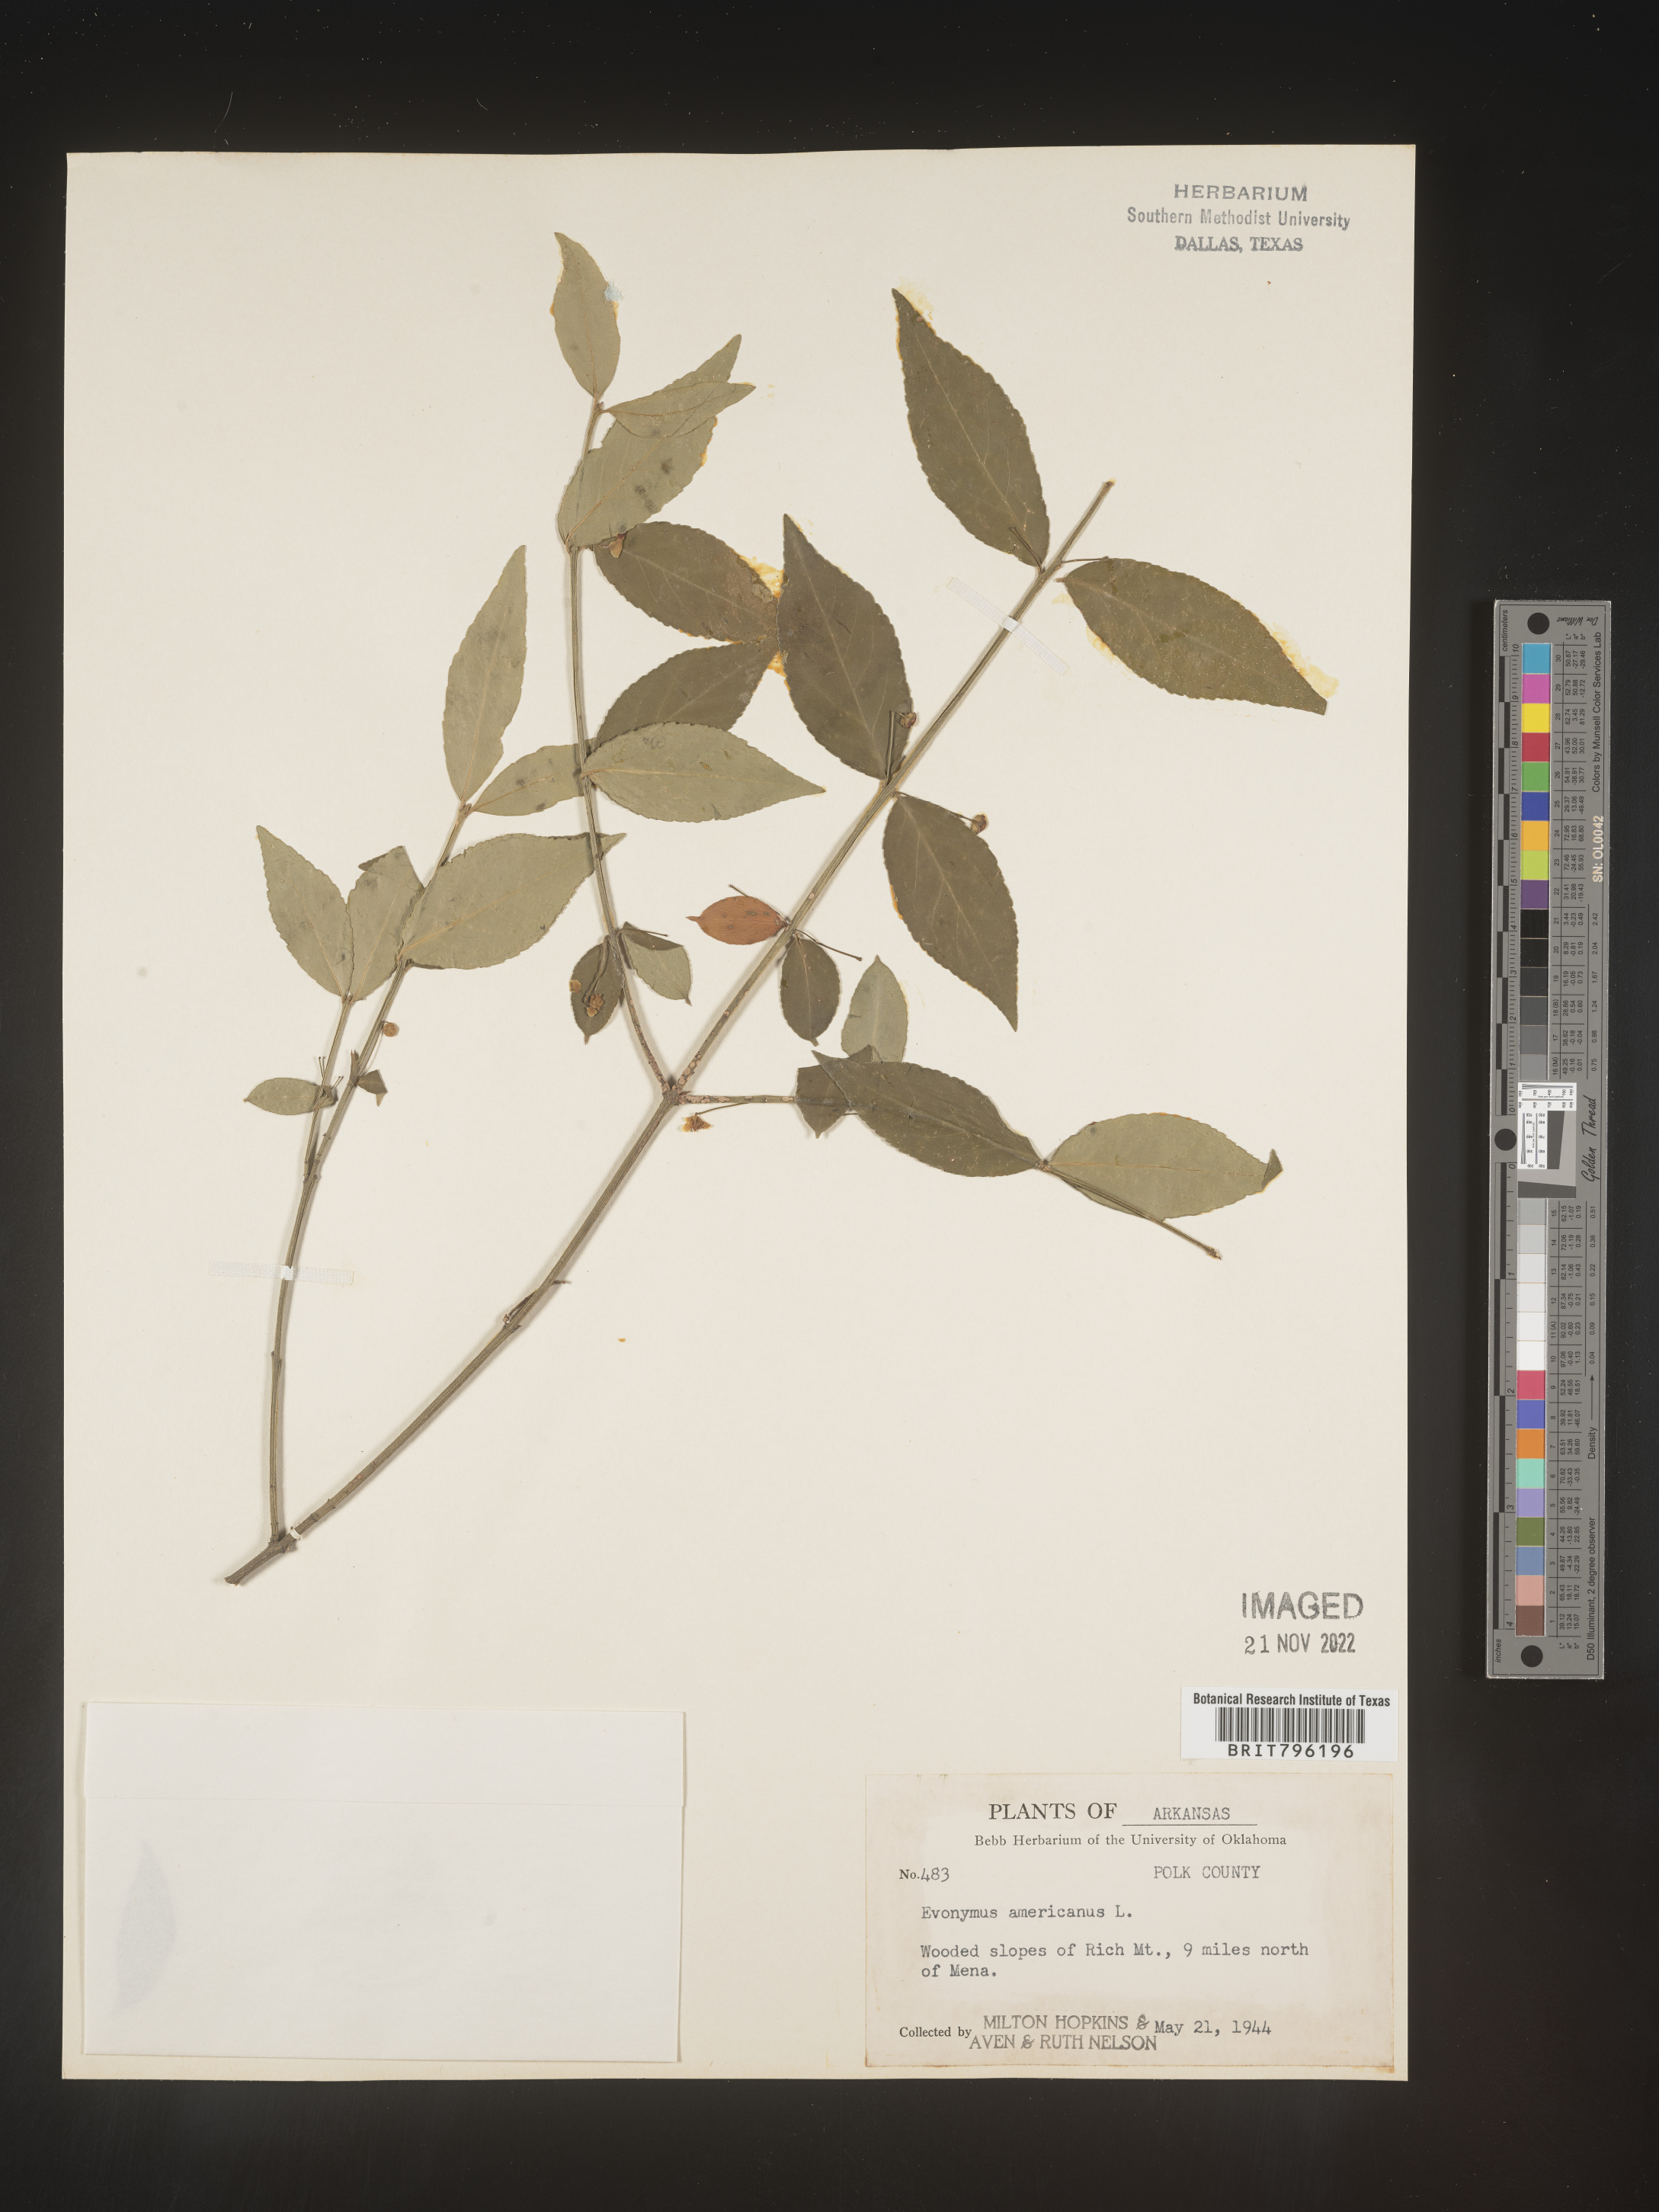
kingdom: Plantae
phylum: Tracheophyta
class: Magnoliopsida
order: Celastrales
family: Celastraceae
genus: Euonymus
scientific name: Euonymus americanus
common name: Bursting-heart
